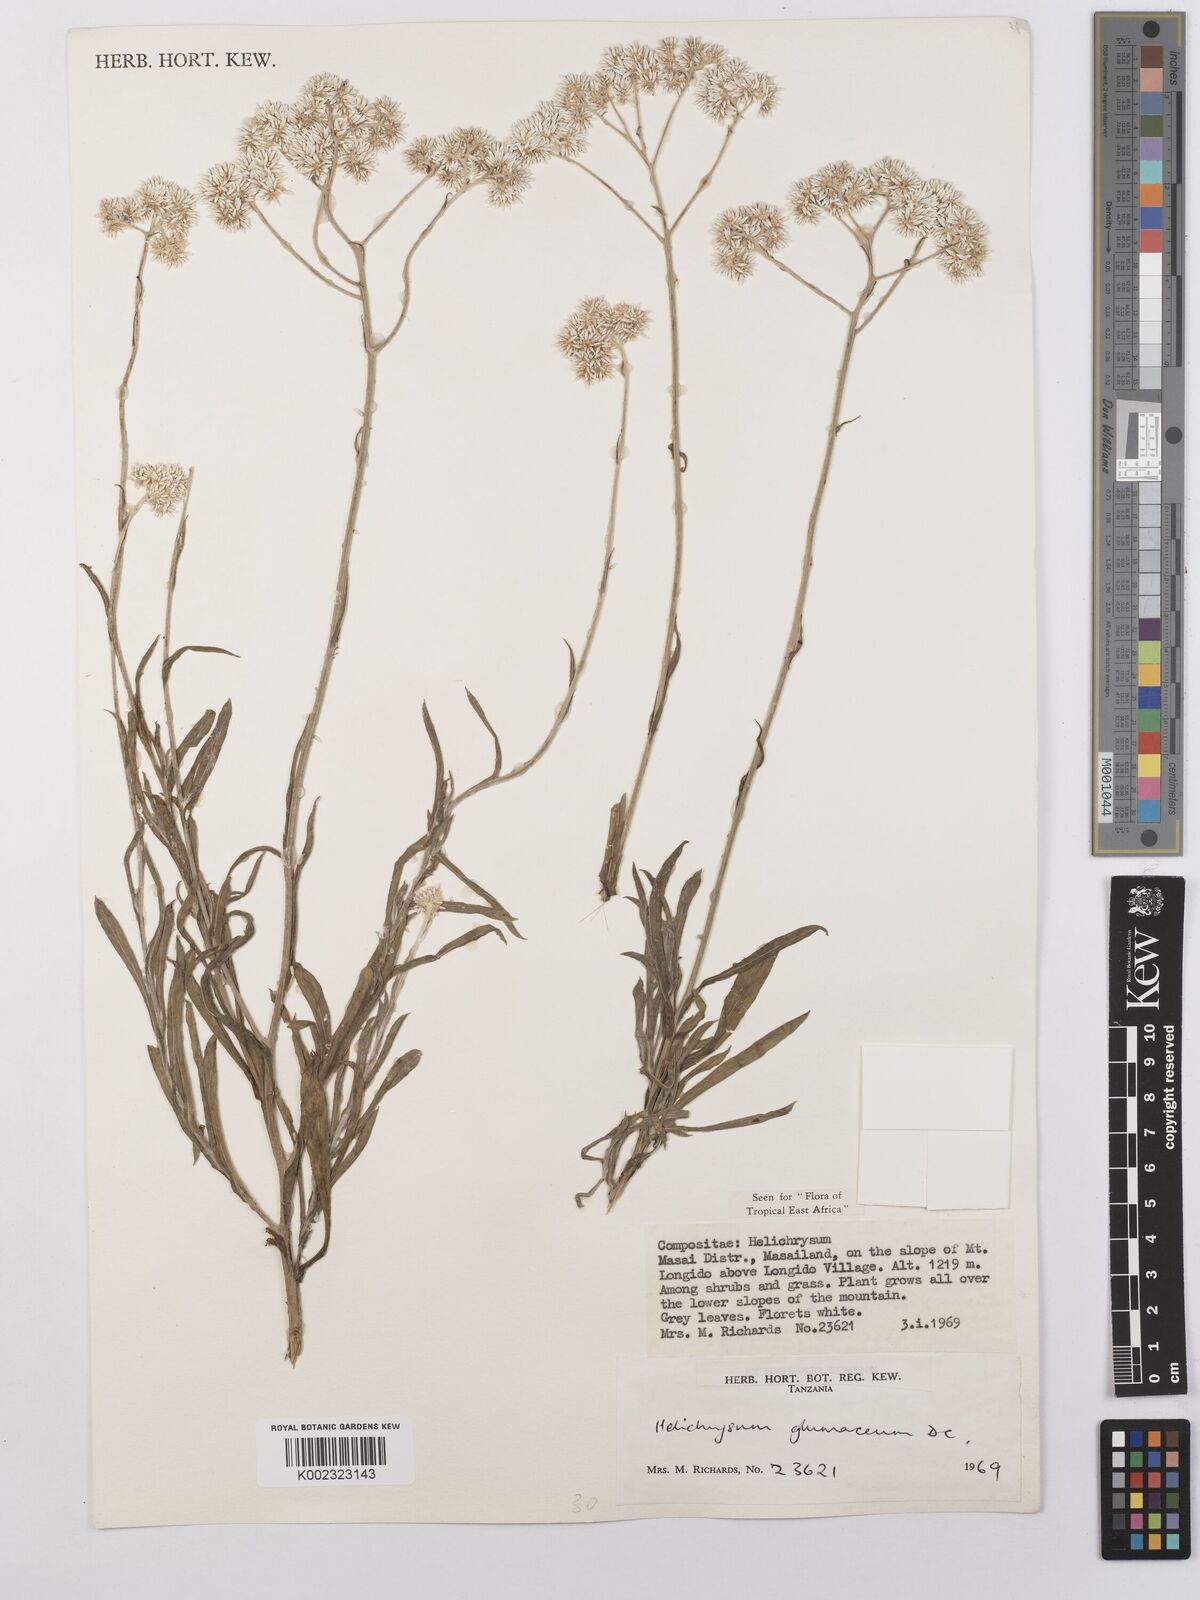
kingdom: Plantae
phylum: Tracheophyta
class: Magnoliopsida
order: Asterales
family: Asteraceae
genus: Helichrysum
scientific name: Helichrysum glumaceum
